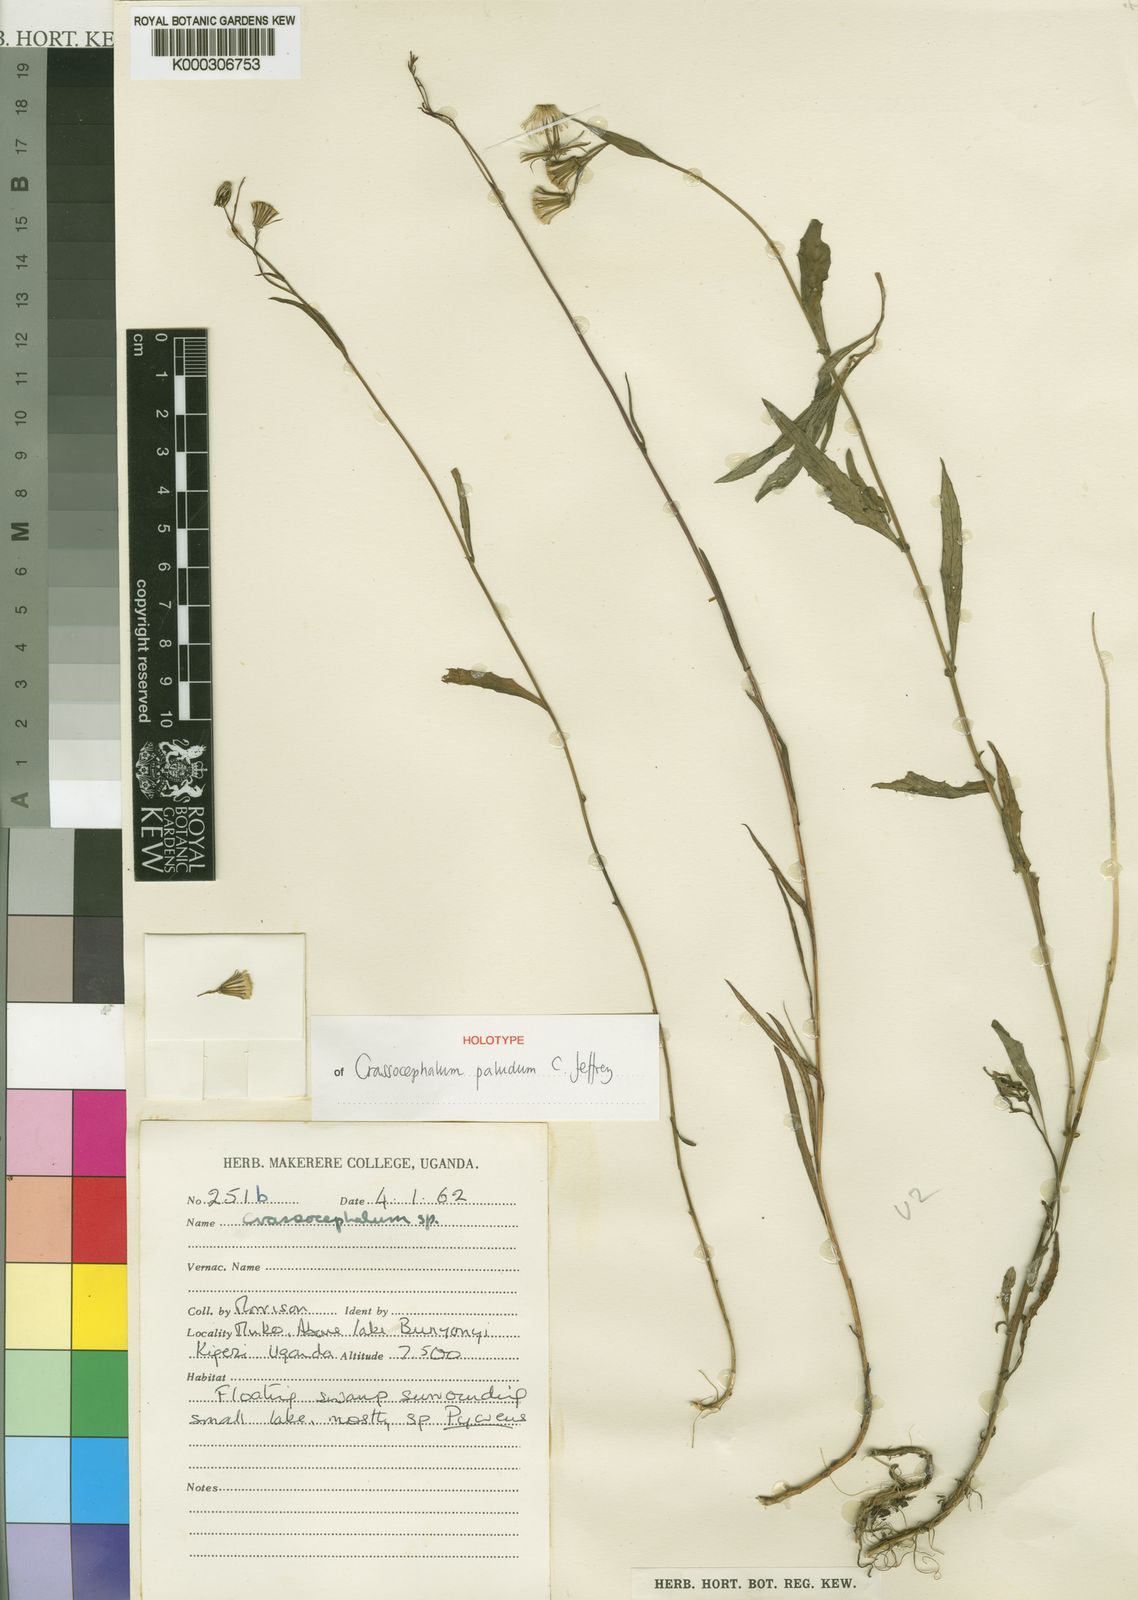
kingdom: Plantae
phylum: Tracheophyta
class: Magnoliopsida
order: Asterales
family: Asteraceae
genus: Crassocephalum
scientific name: Crassocephalum paludum
